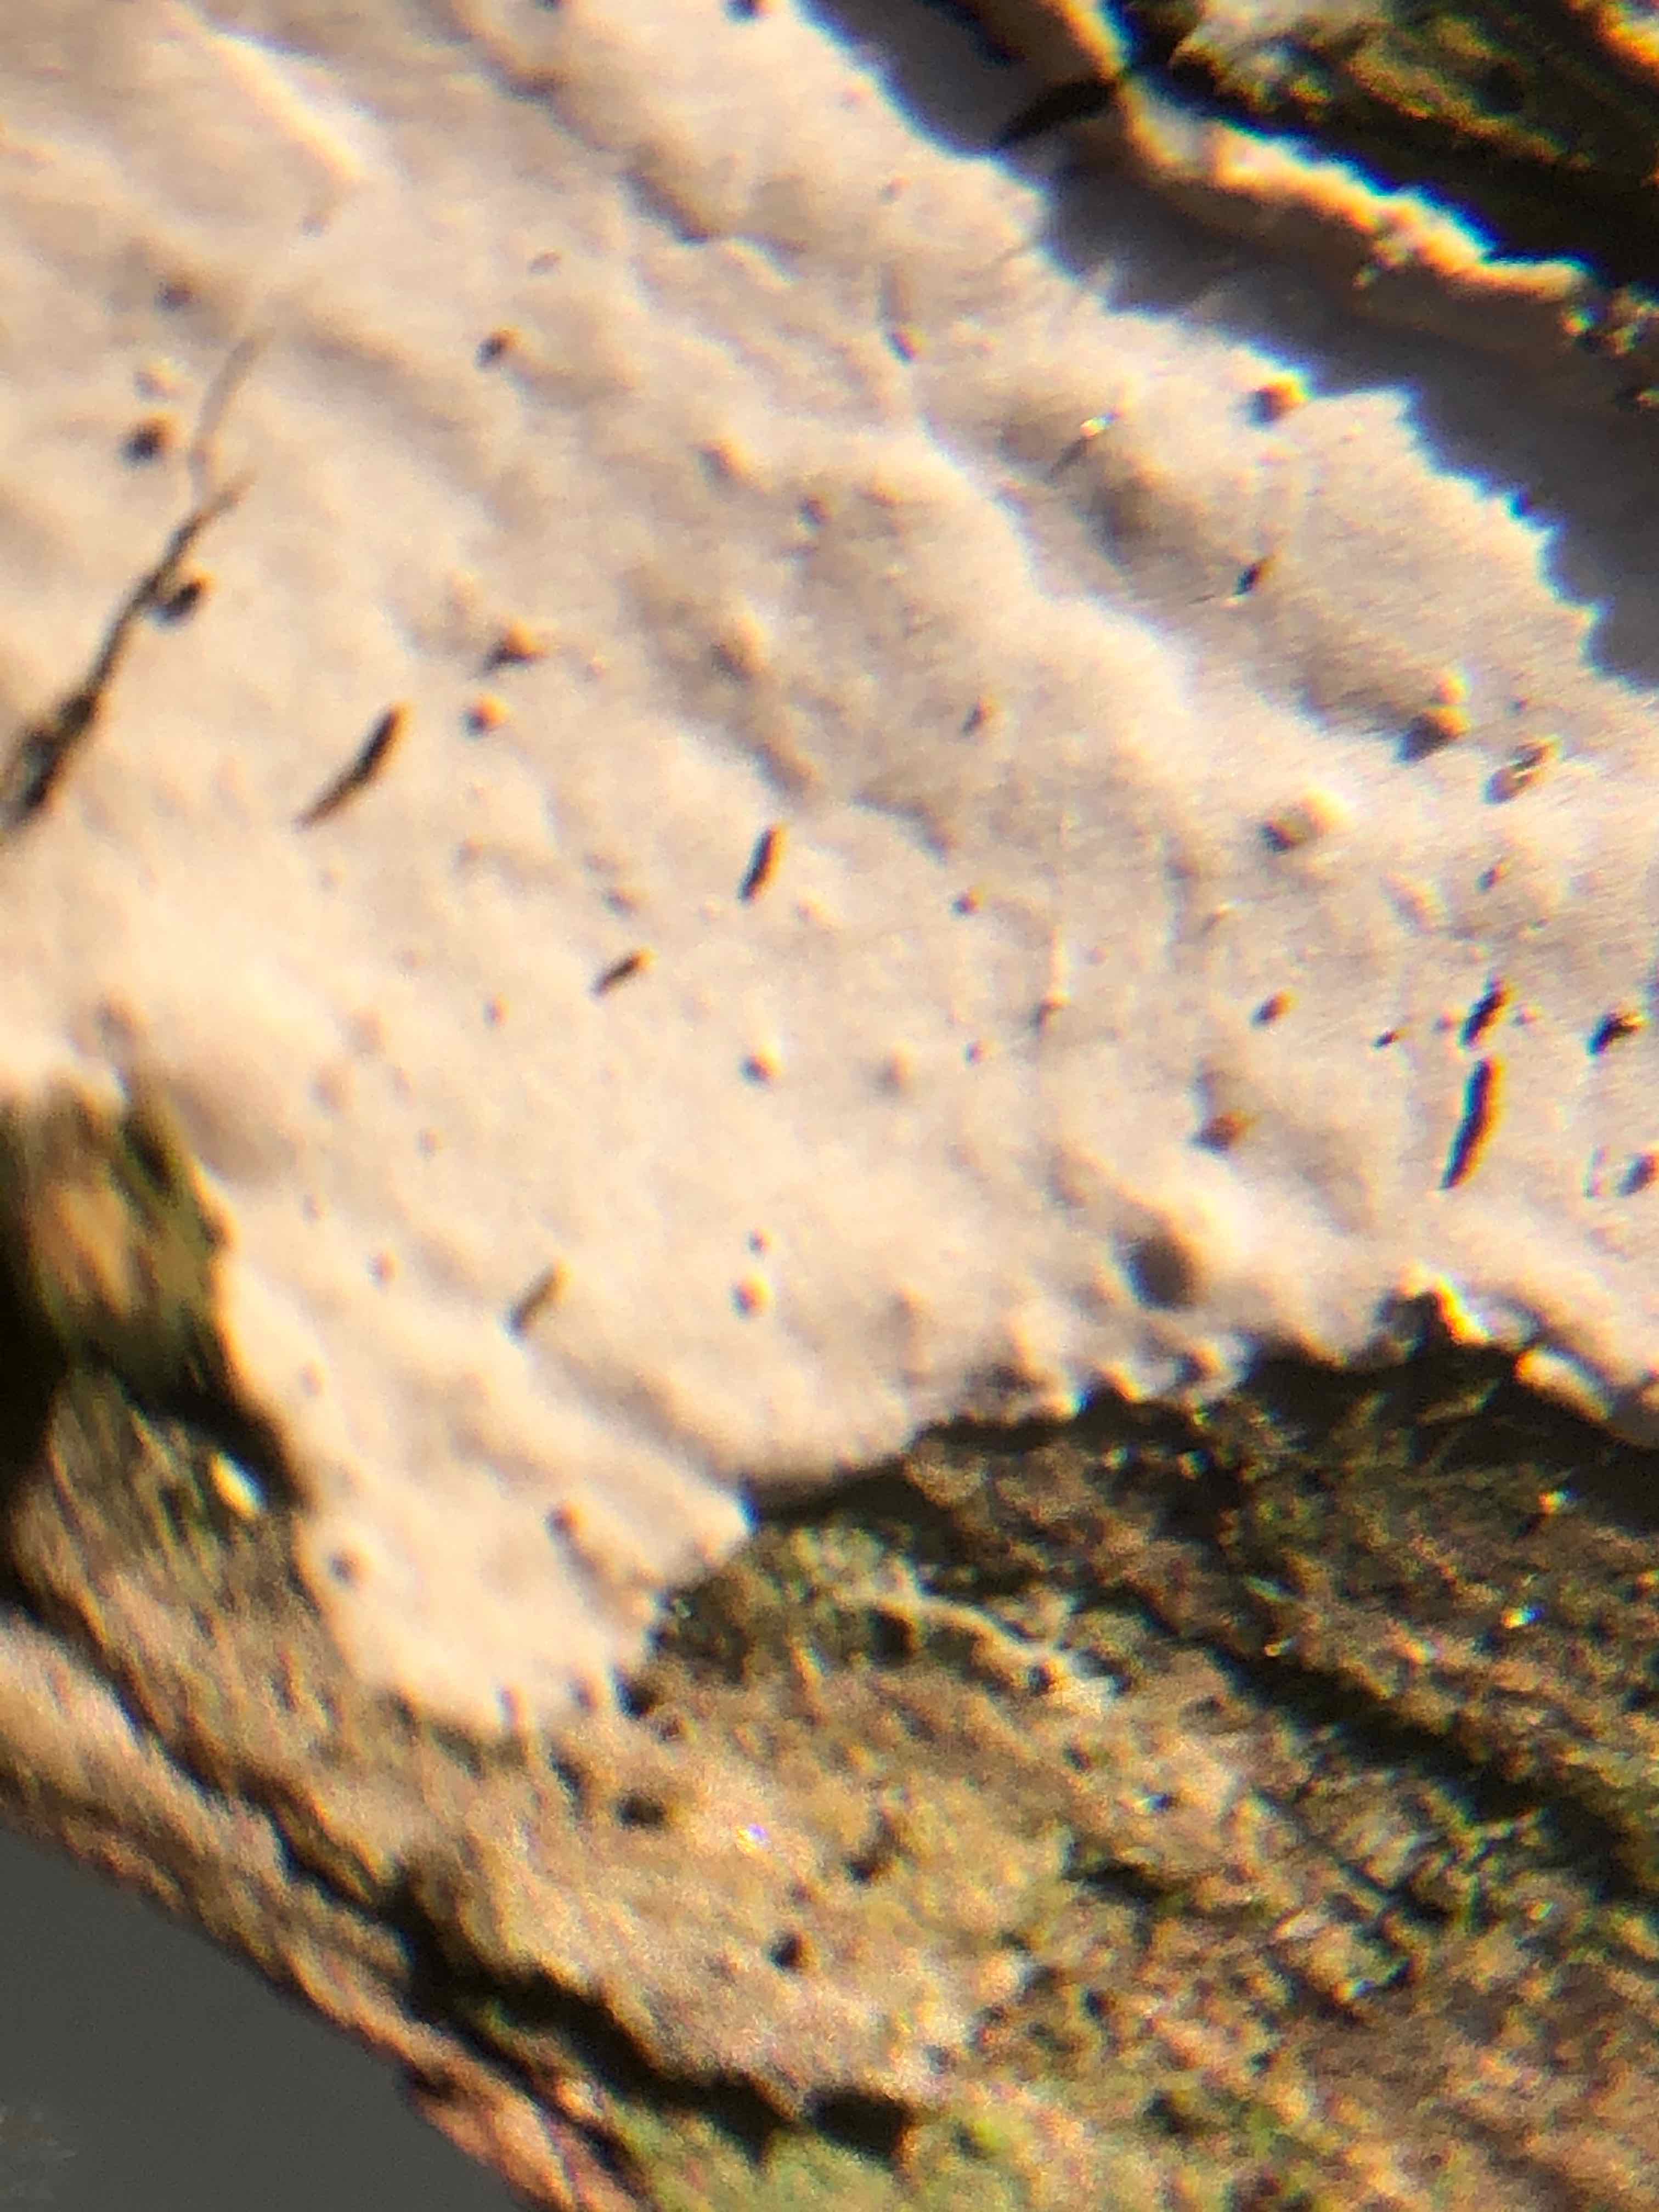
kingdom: Fungi
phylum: Basidiomycota
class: Agaricomycetes
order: Russulales
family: Echinodontiaceae
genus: Amylostereum
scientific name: Amylostereum laevigatum
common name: ene-lædersvamp
